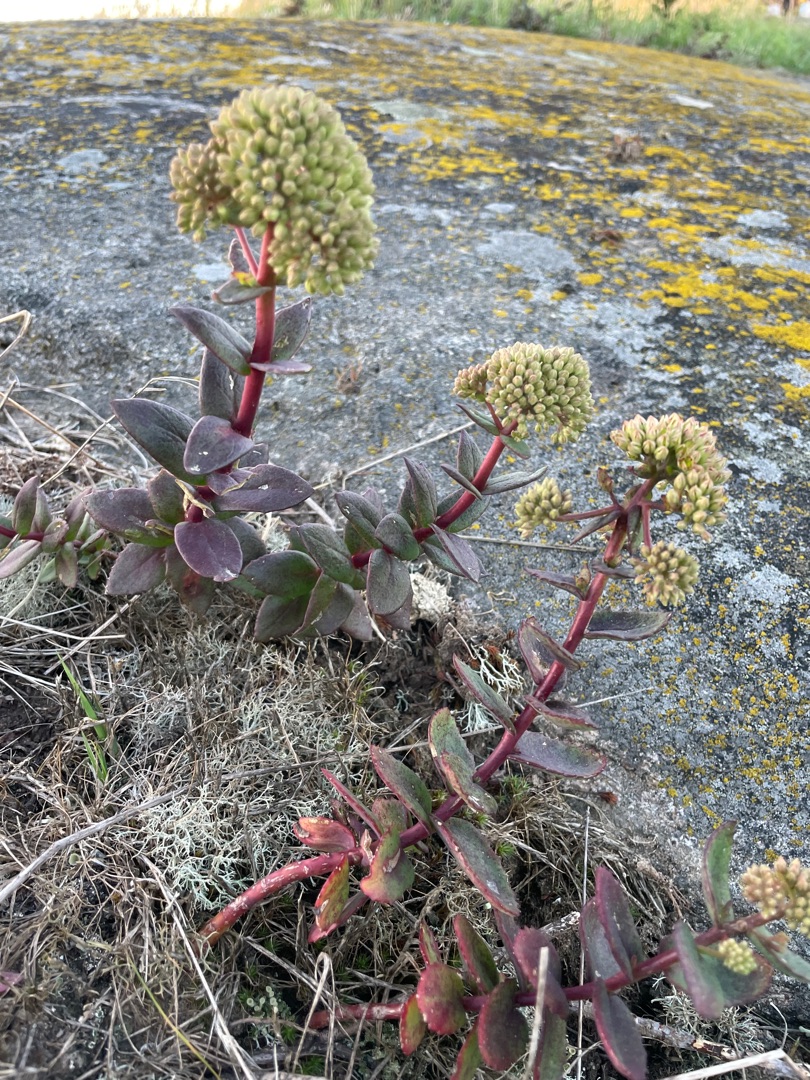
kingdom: Plantae
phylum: Tracheophyta
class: Magnoliopsida
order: Saxifragales
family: Crassulaceae
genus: Hylotelephium
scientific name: Hylotelephium maximum
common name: Almindelig sankthansurt
